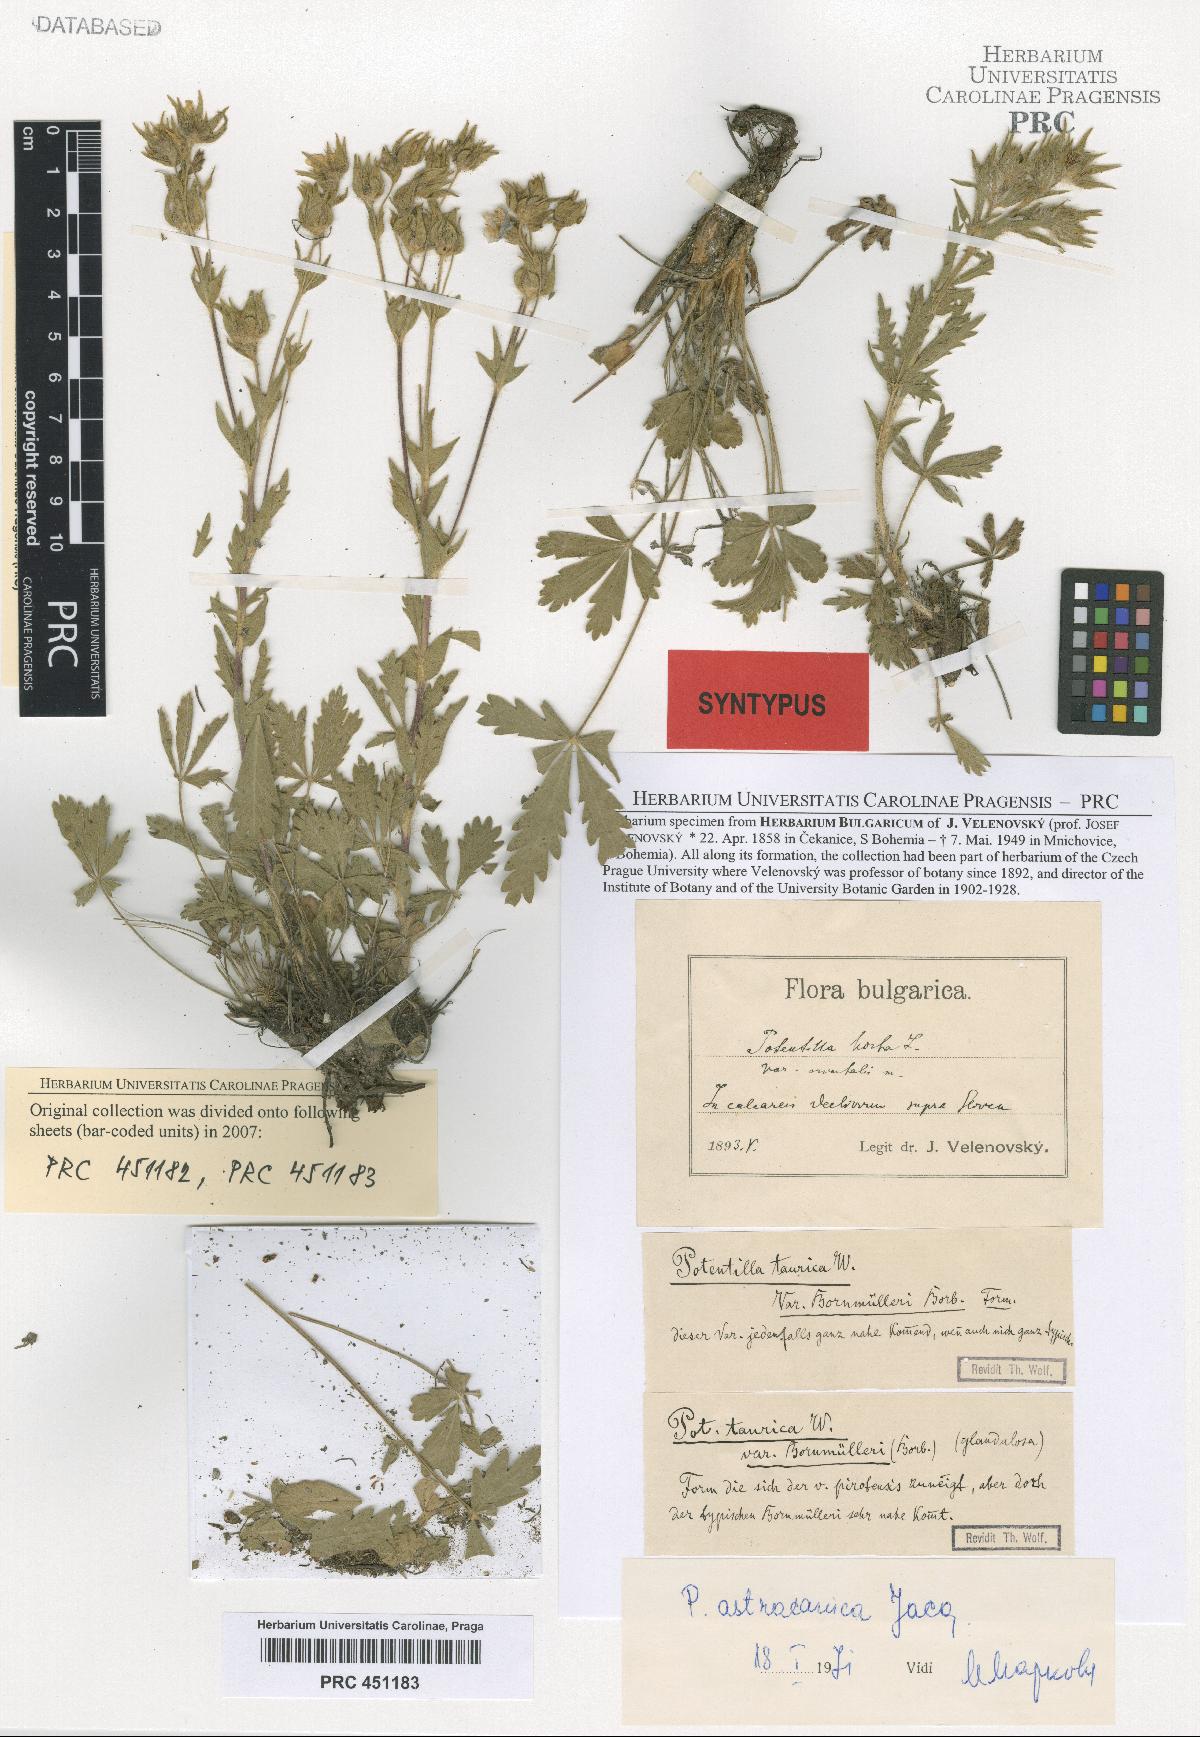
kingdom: Plantae
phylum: Tracheophyta
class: Magnoliopsida
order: Rosales
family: Rosaceae
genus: Potentilla
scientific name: Potentilla astracanica
